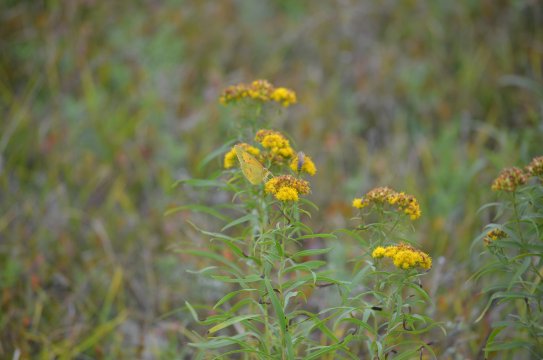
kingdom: Animalia
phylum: Arthropoda
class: Insecta
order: Lepidoptera
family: Pieridae
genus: Colias
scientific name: Colias eurytheme
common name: Orange Sulphur
